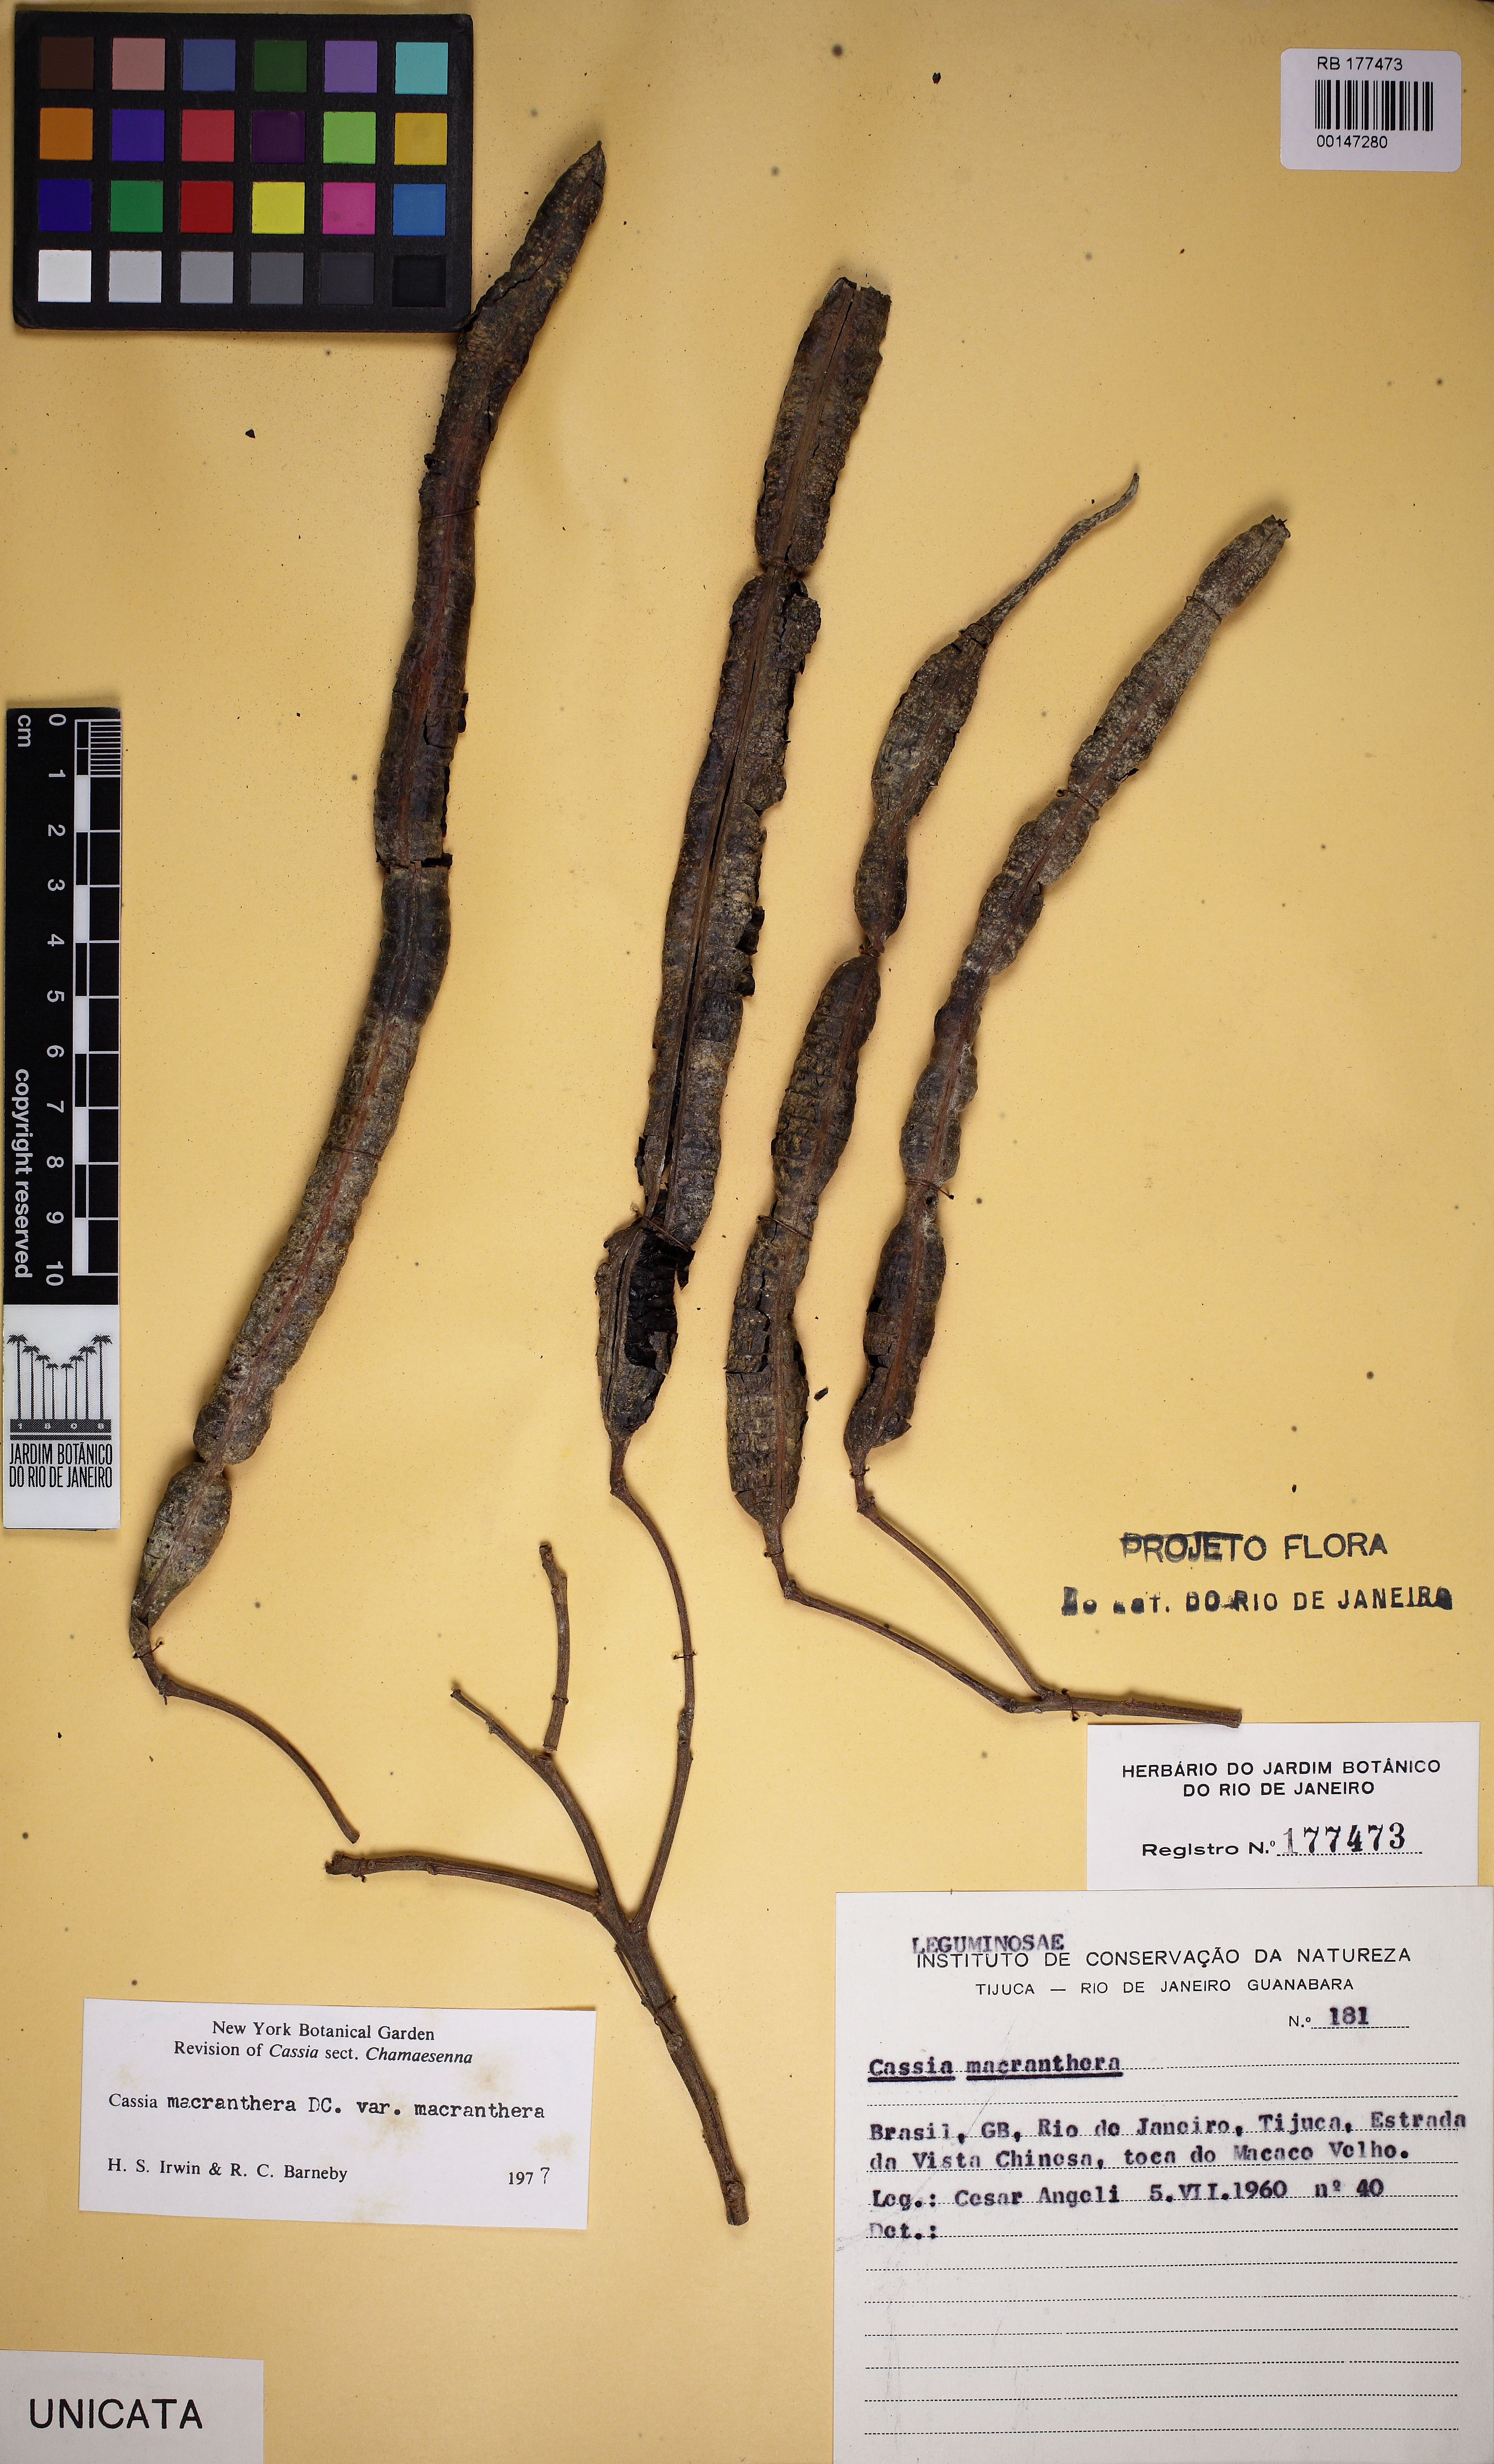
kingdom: Plantae
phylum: Tracheophyta
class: Magnoliopsida
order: Fabales
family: Fabaceae
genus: Senna
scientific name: Senna macranthera
